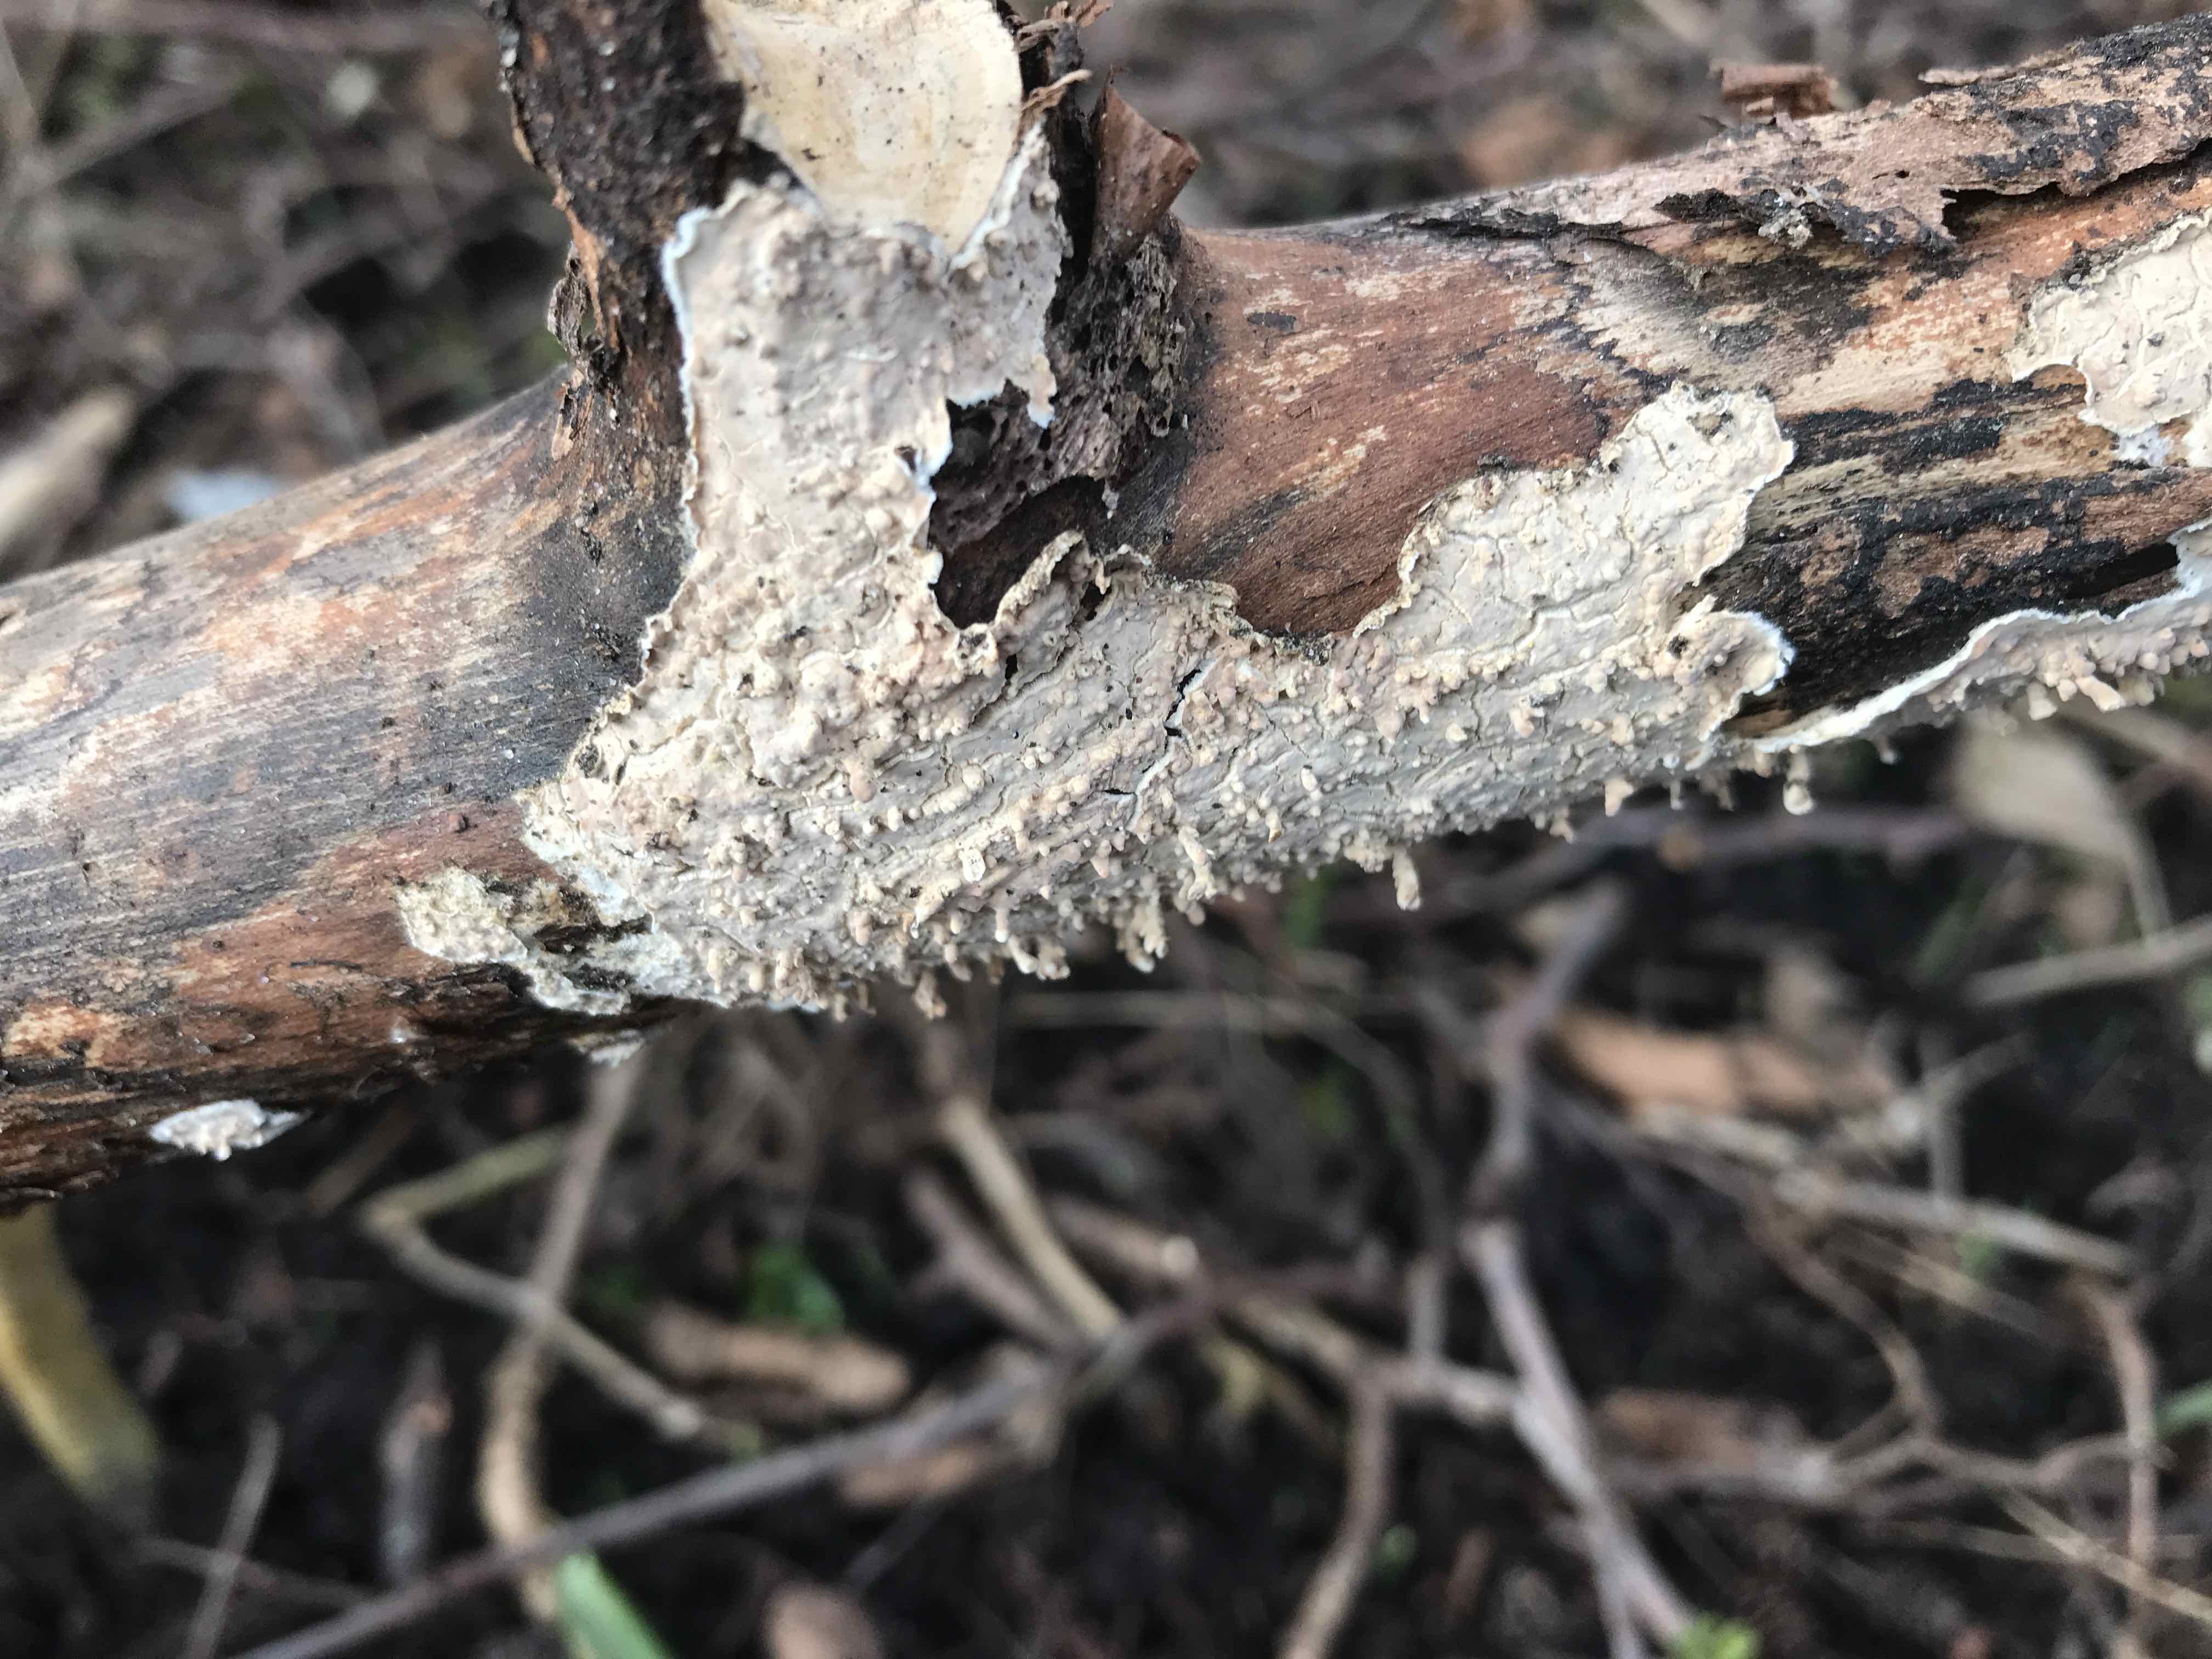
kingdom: Fungi
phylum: Basidiomycota
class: Agaricomycetes
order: Agaricales
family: Physalacriaceae
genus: Cylindrobasidium
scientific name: Cylindrobasidium evolvens
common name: sprækkehinde
